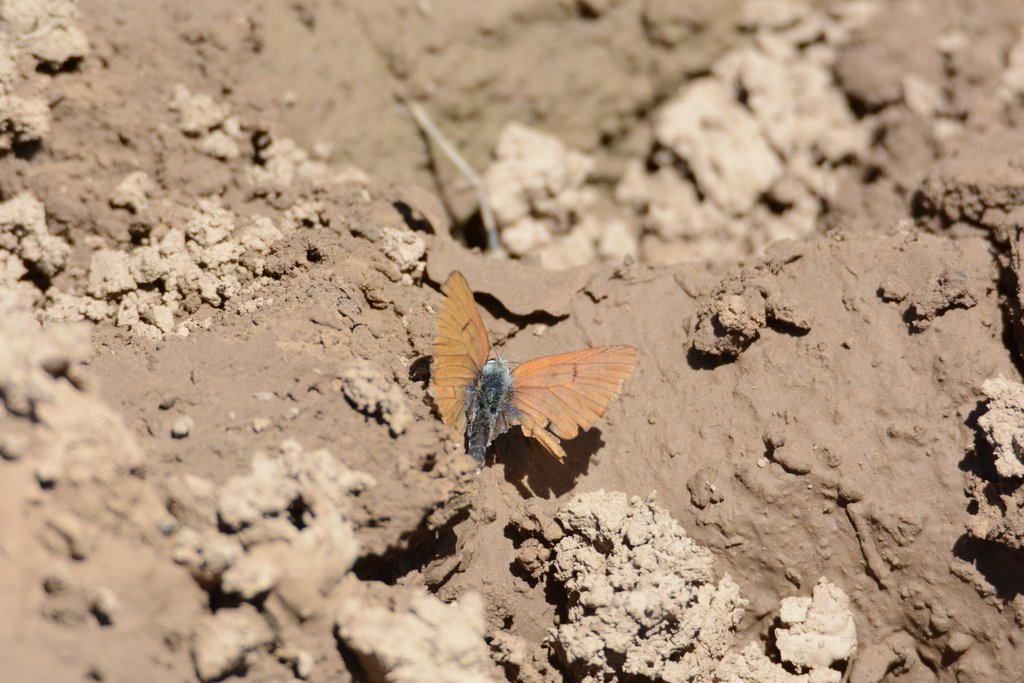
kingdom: Animalia
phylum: Arthropoda
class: Insecta
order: Lepidoptera
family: Sesiidae
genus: Sesia
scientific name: Sesia Lycaena rubidus
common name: Ruddy Copper
